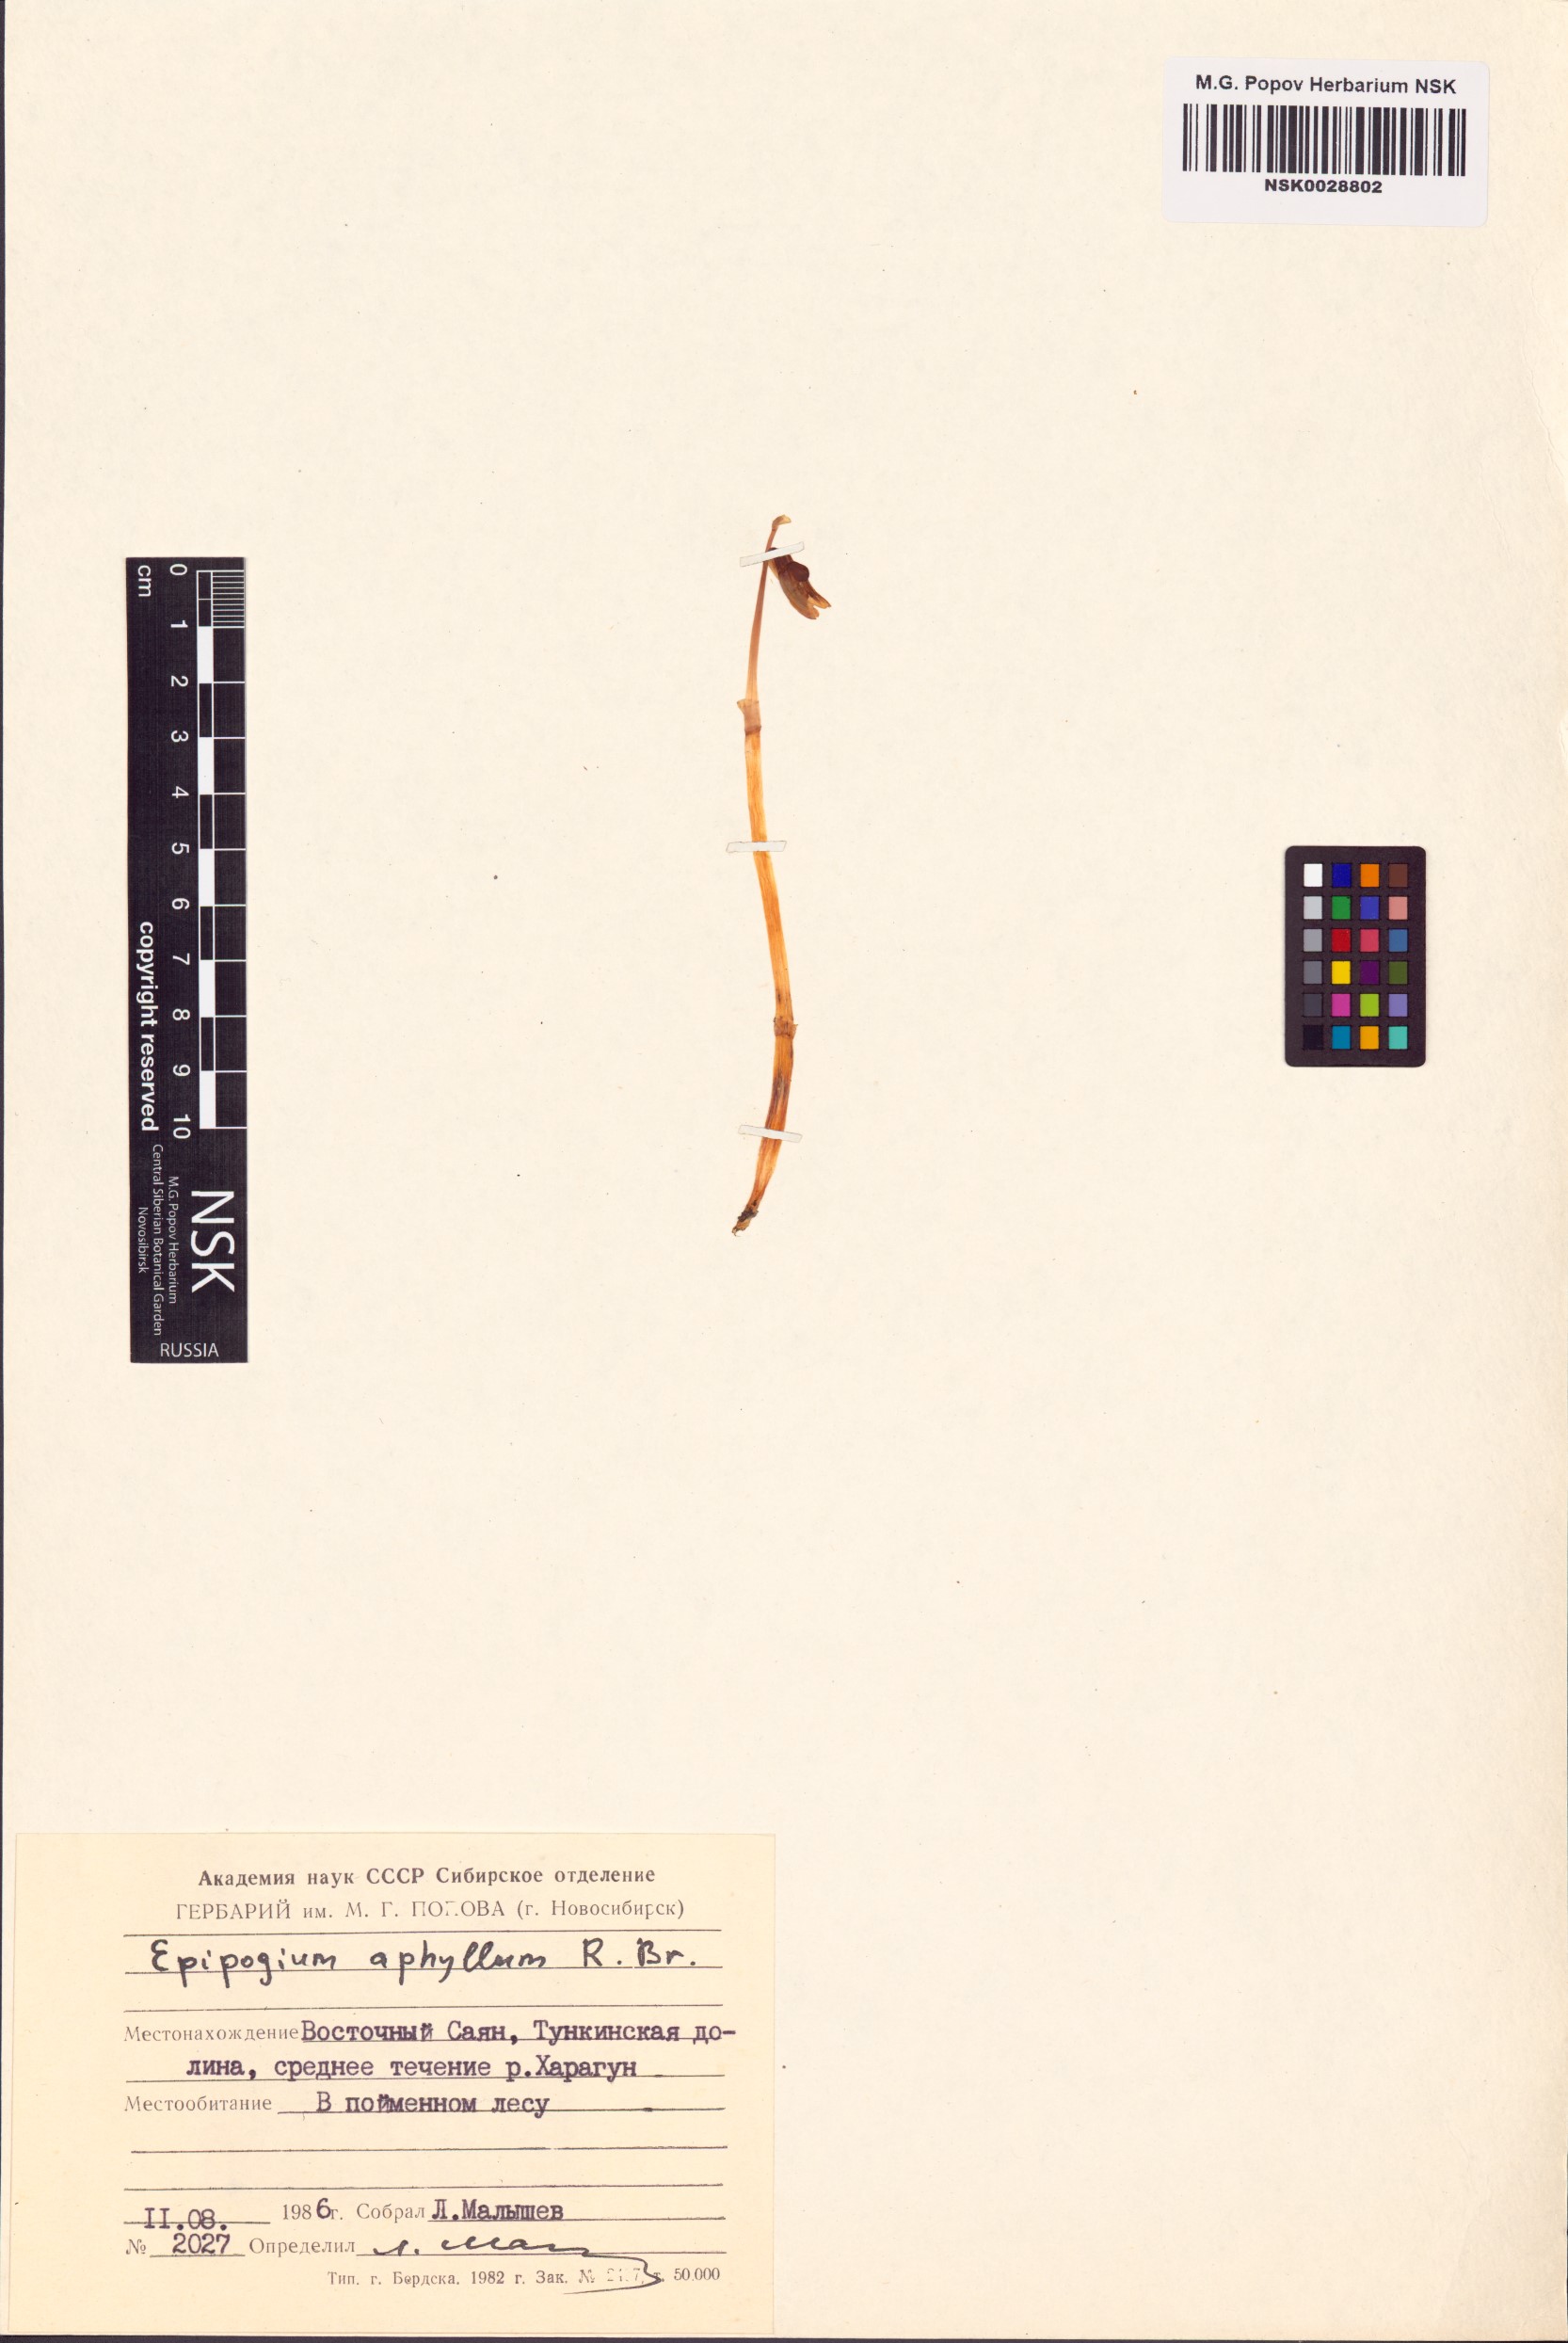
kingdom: Plantae
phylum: Tracheophyta
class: Liliopsida
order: Asparagales
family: Orchidaceae
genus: Epipogium
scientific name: Epipogium aphyllum
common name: Ghost orchid
